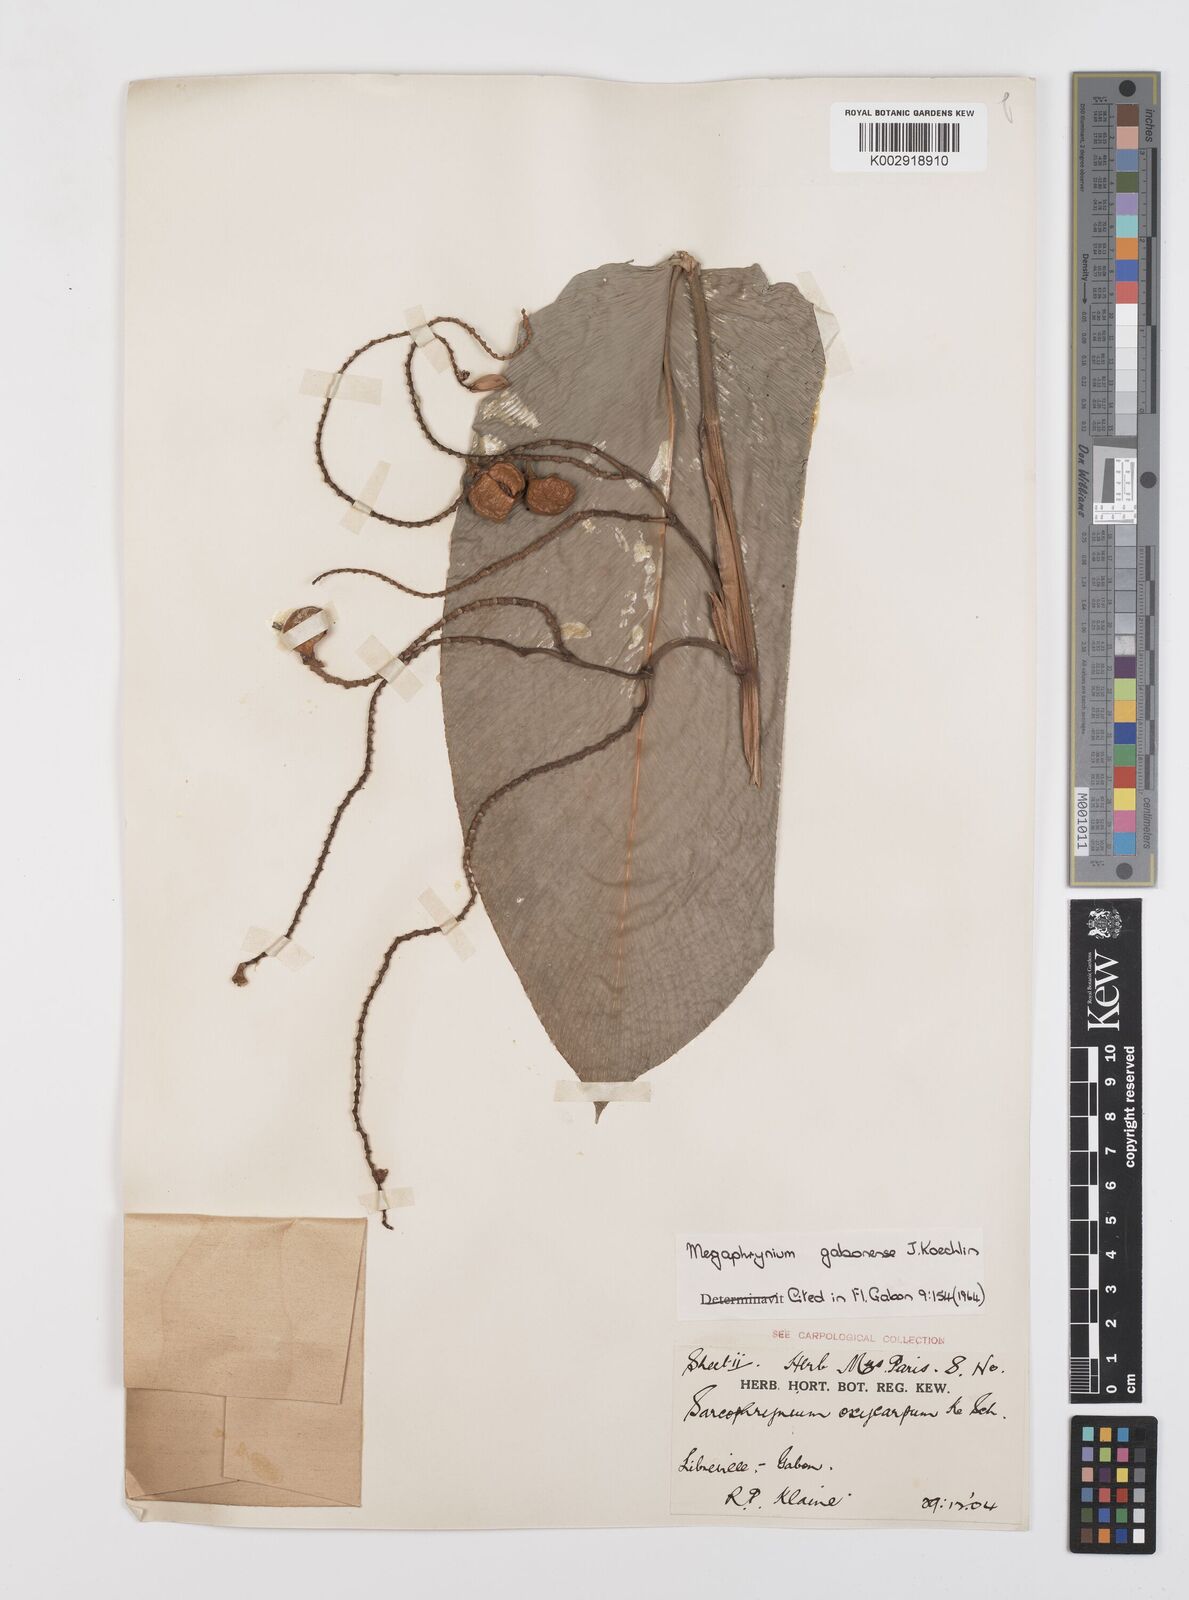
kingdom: Plantae
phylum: Tracheophyta
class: Liliopsida
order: Zingiberales
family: Marantaceae
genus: Megaphrynium
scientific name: Megaphrynium gabonense
